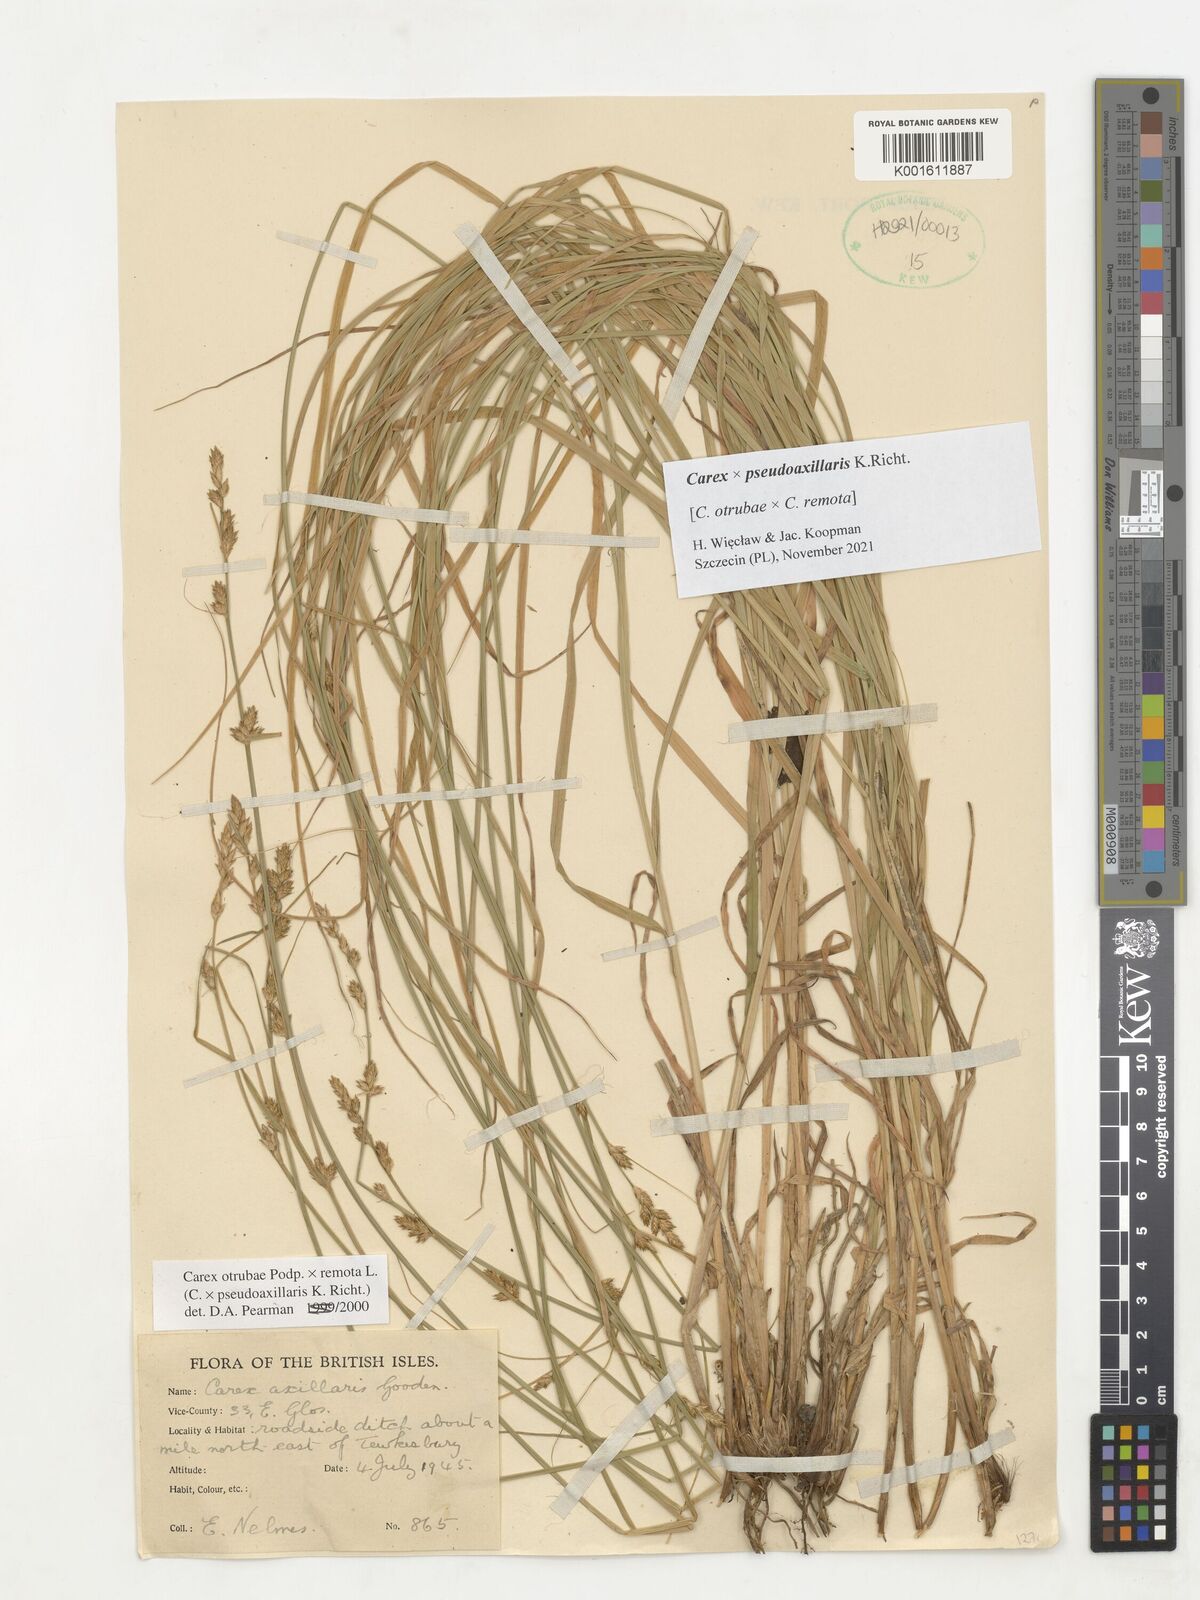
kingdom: Plantae
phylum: Tracheophyta
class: Liliopsida
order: Poales
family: Cyperaceae
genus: Carex
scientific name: Carex pseudoaxillaris
